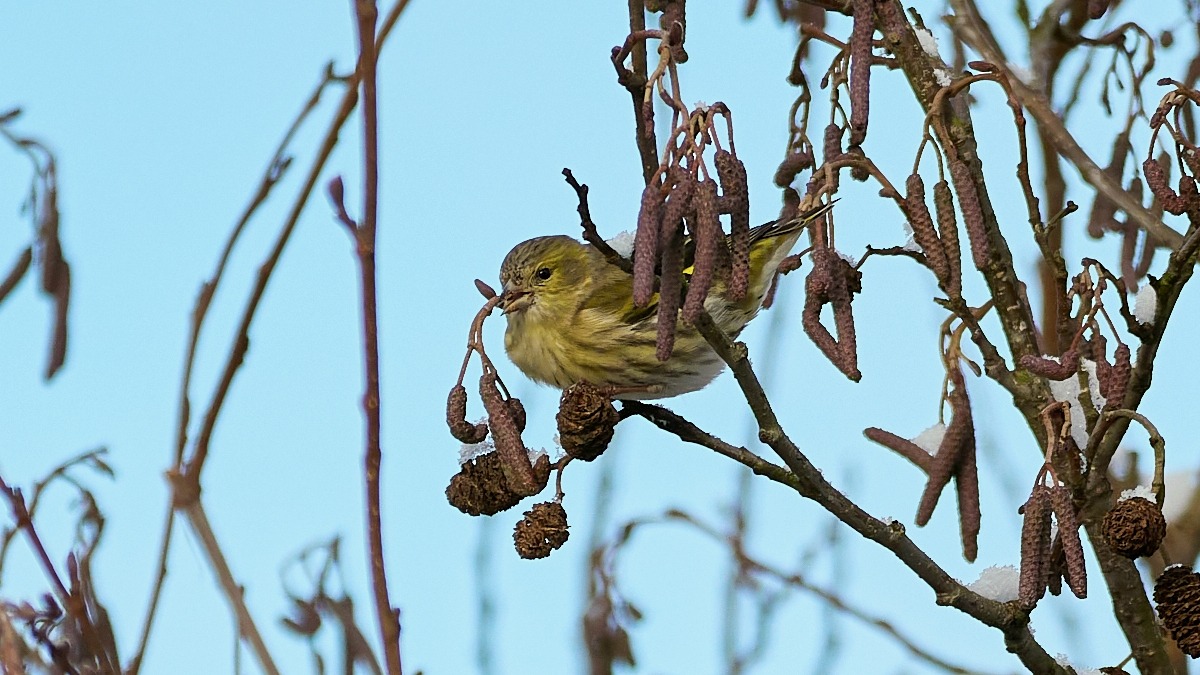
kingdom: Animalia
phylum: Chordata
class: Aves
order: Passeriformes
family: Fringillidae
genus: Spinus
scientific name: Spinus spinus
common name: Grønsisken
